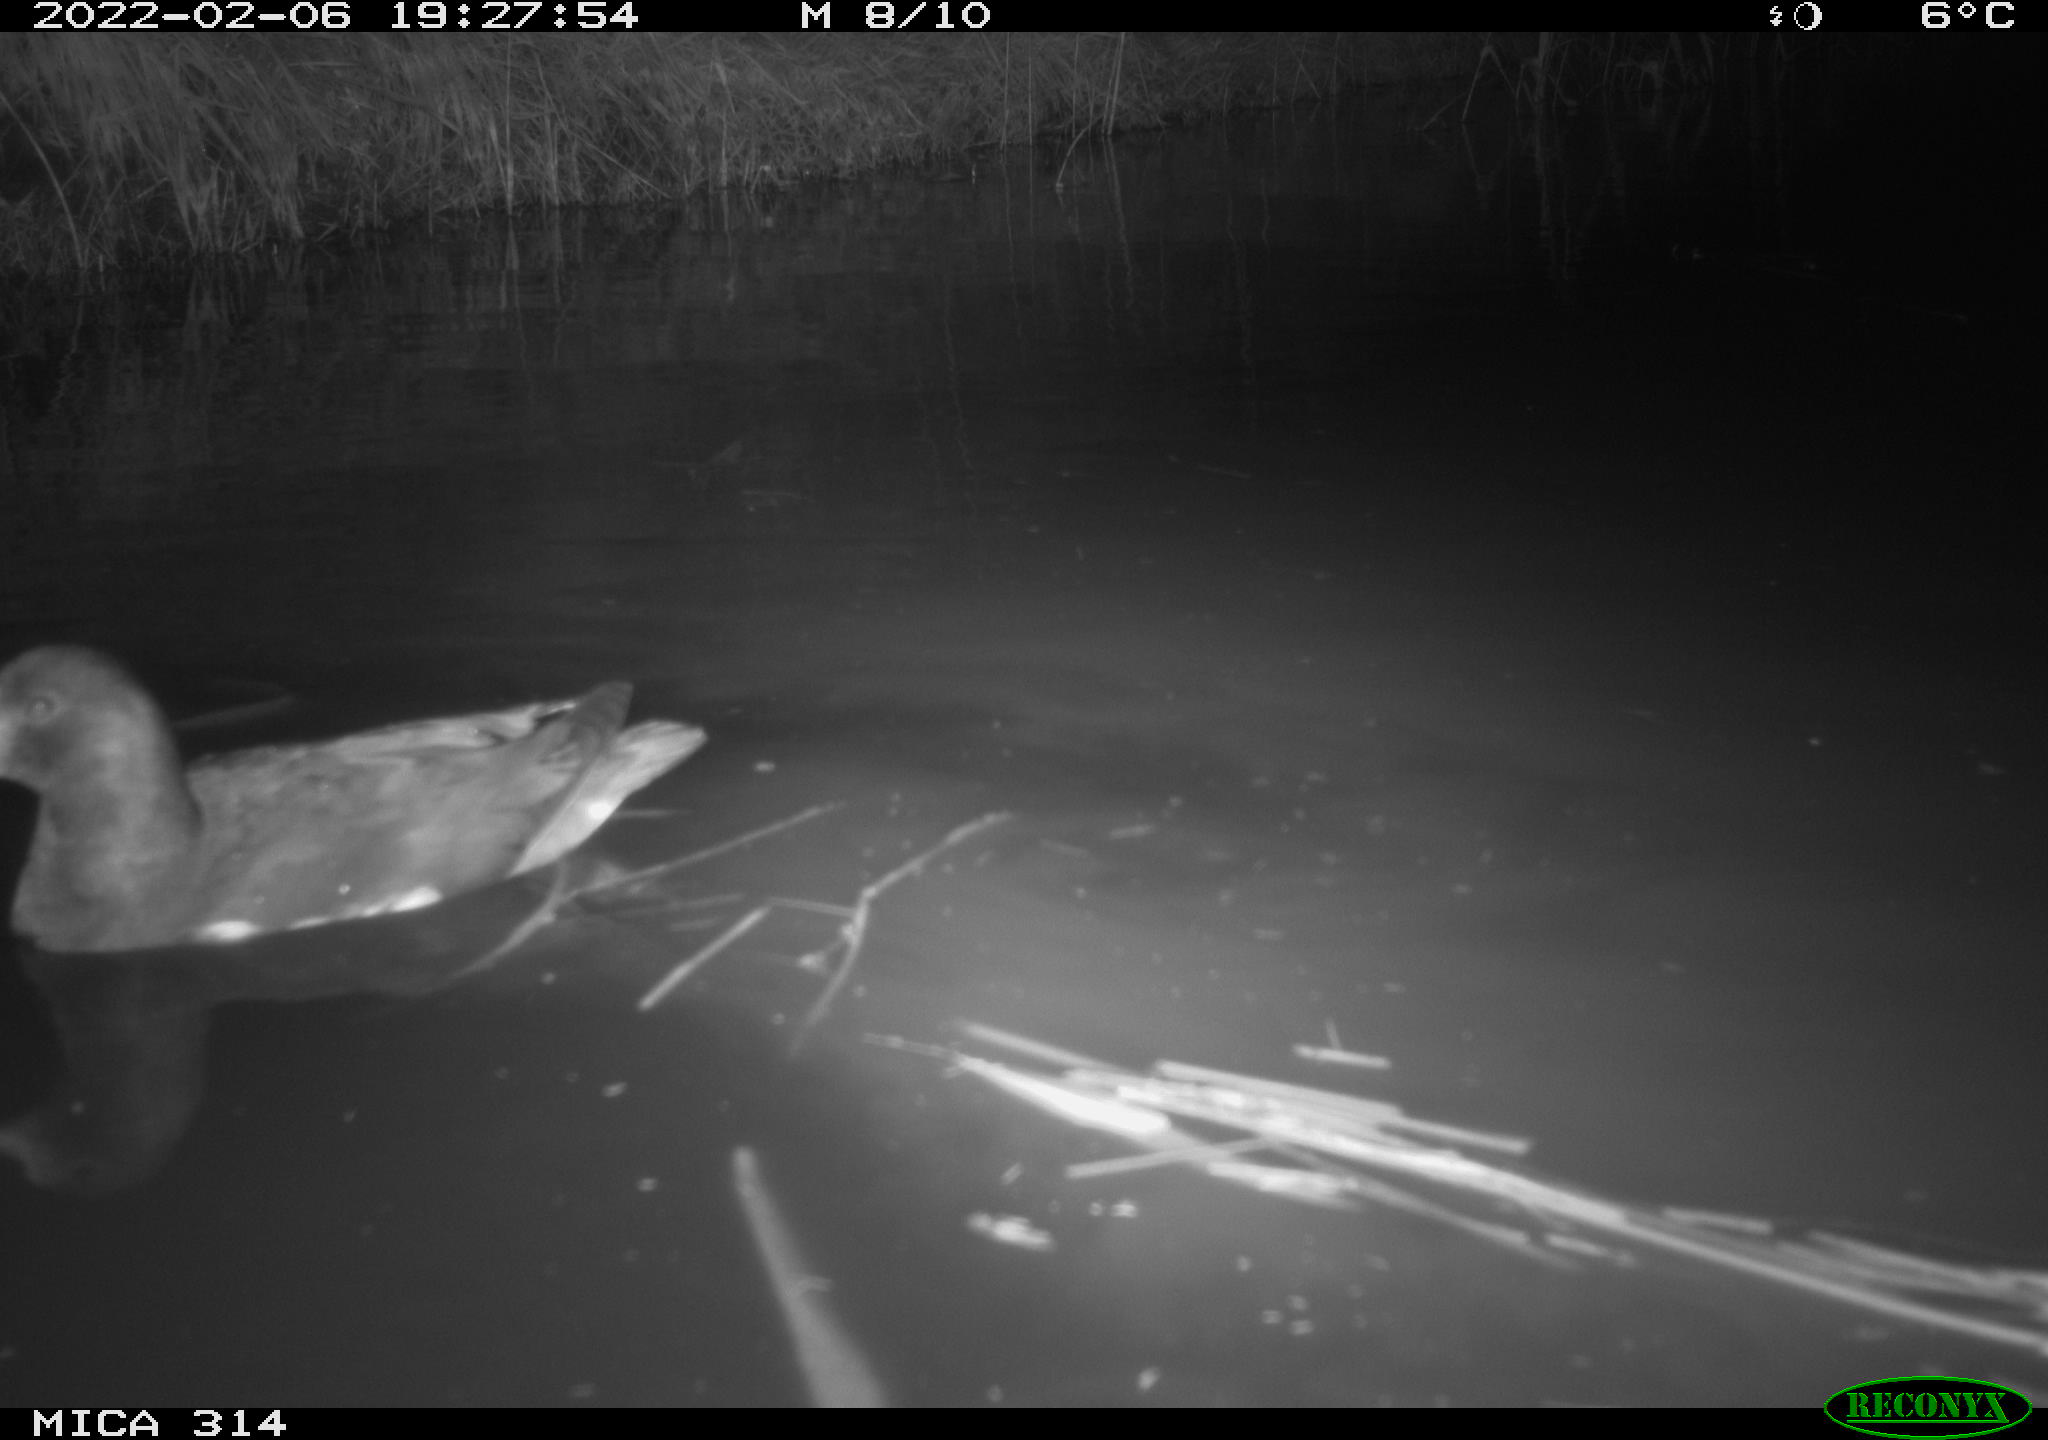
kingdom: Animalia
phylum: Chordata
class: Aves
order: Gruiformes
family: Rallidae
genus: Gallinula
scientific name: Gallinula chloropus
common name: Common moorhen
